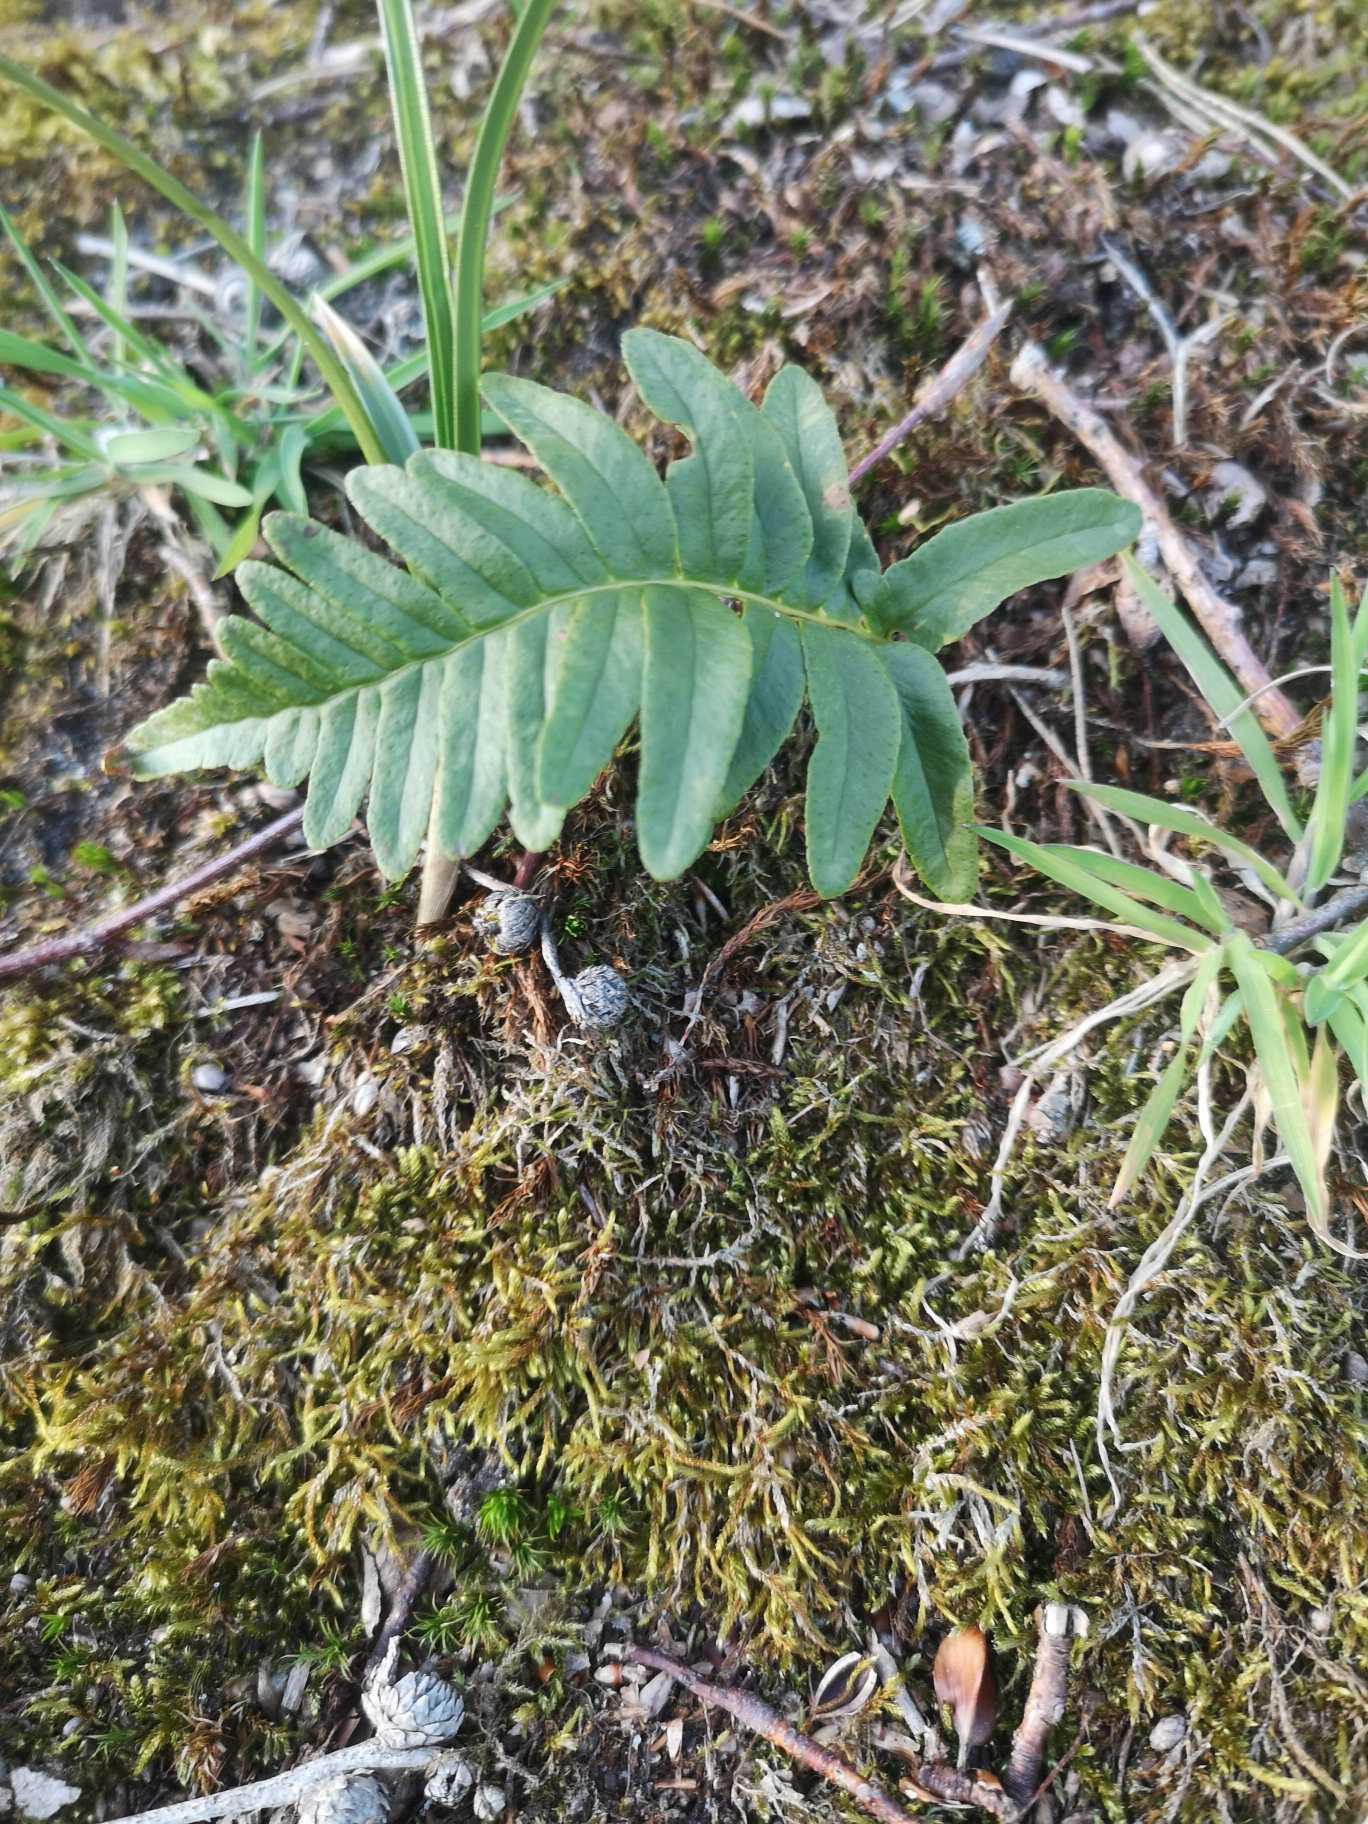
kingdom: Plantae
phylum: Tracheophyta
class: Polypodiopsida
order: Polypodiales
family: Polypodiaceae
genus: Polypodium
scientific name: Polypodium vulgare
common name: Almindelig engelsød
